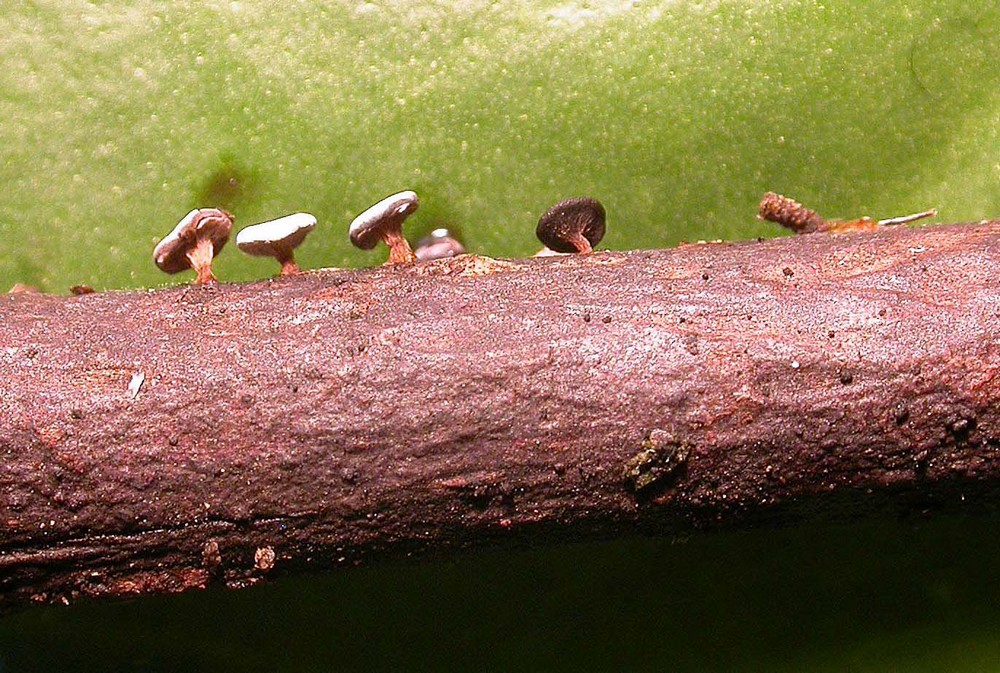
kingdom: Protozoa
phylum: Mycetozoa
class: Myxomycetes
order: Physarales
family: Didymiaceae
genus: Diderma
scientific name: Diderma hemisphaericum
